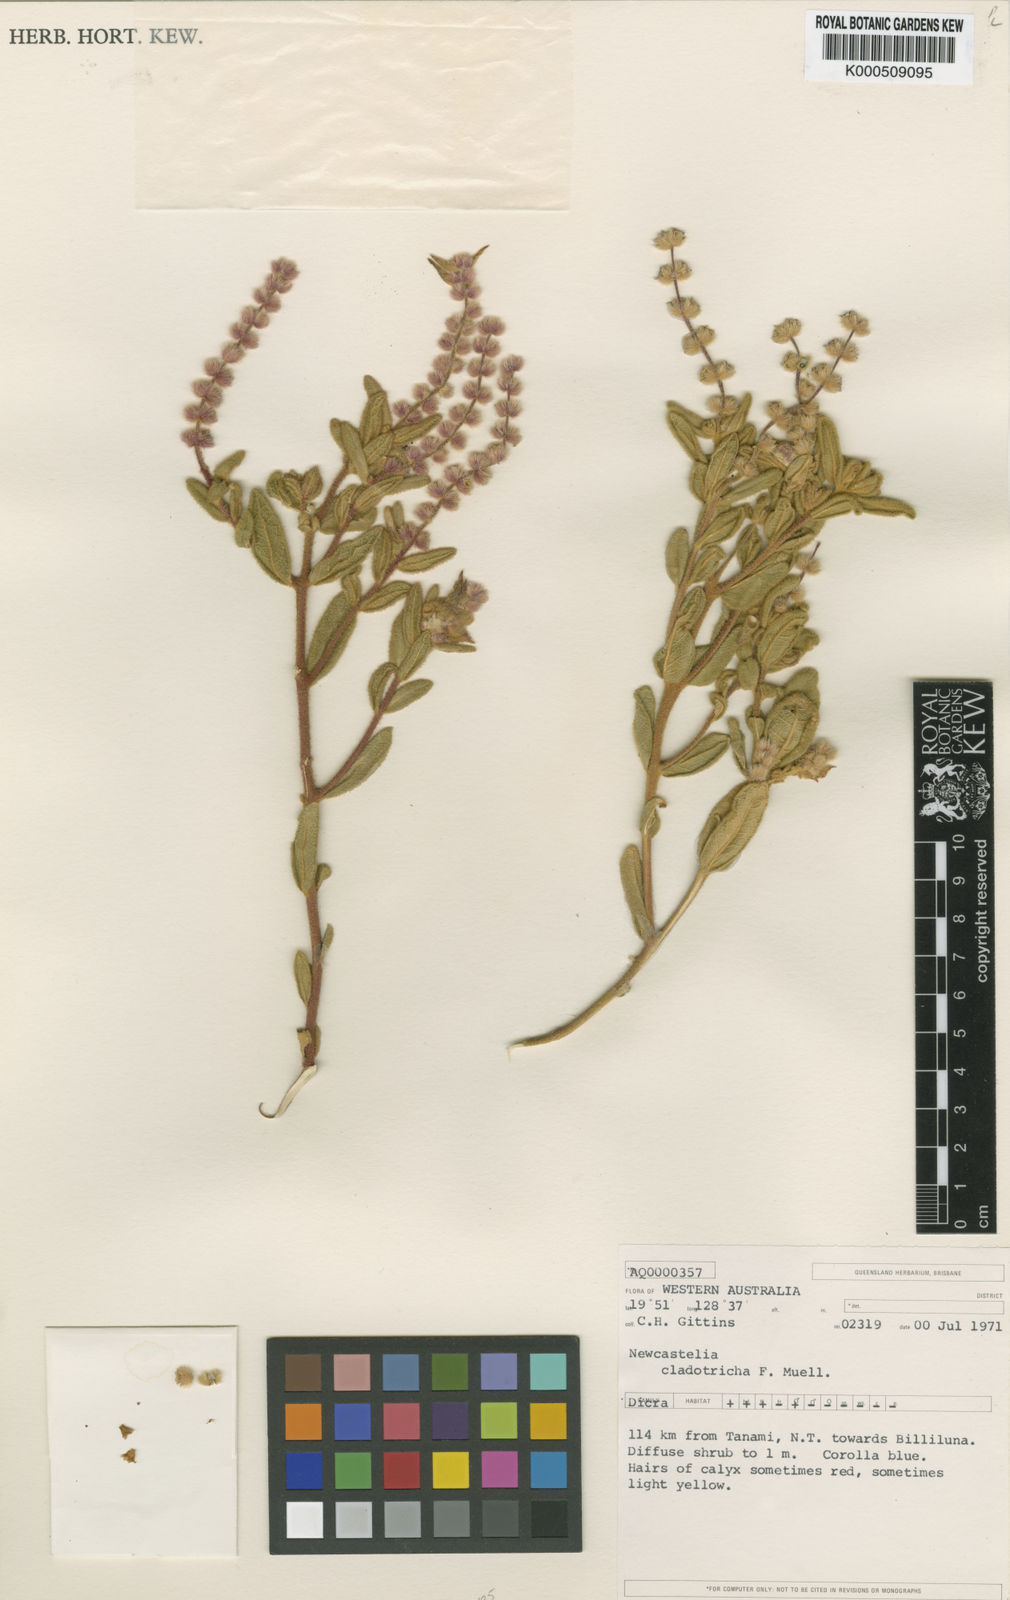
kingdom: Plantae
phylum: Tracheophyta
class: Magnoliopsida
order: Lamiales
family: Lamiaceae
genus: Newcastelia
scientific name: Newcastelia cladotricha
